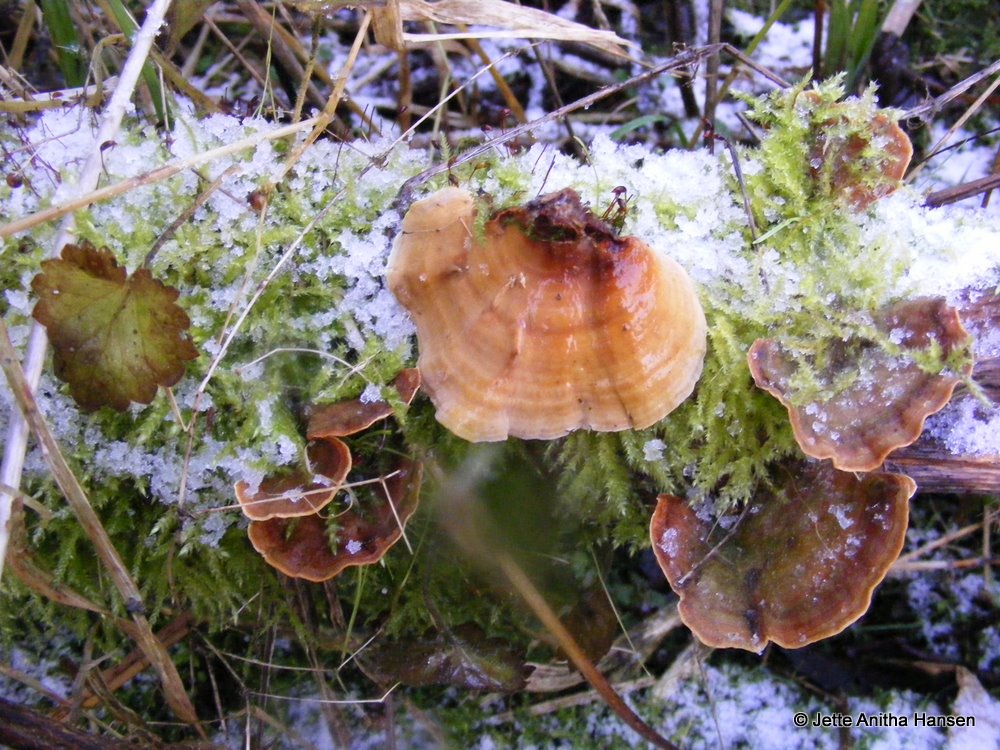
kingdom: Fungi
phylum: Basidiomycota
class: Agaricomycetes
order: Russulales
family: Stereaceae
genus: Stereum
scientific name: Stereum subtomentosum
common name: smuk lædersvamp
